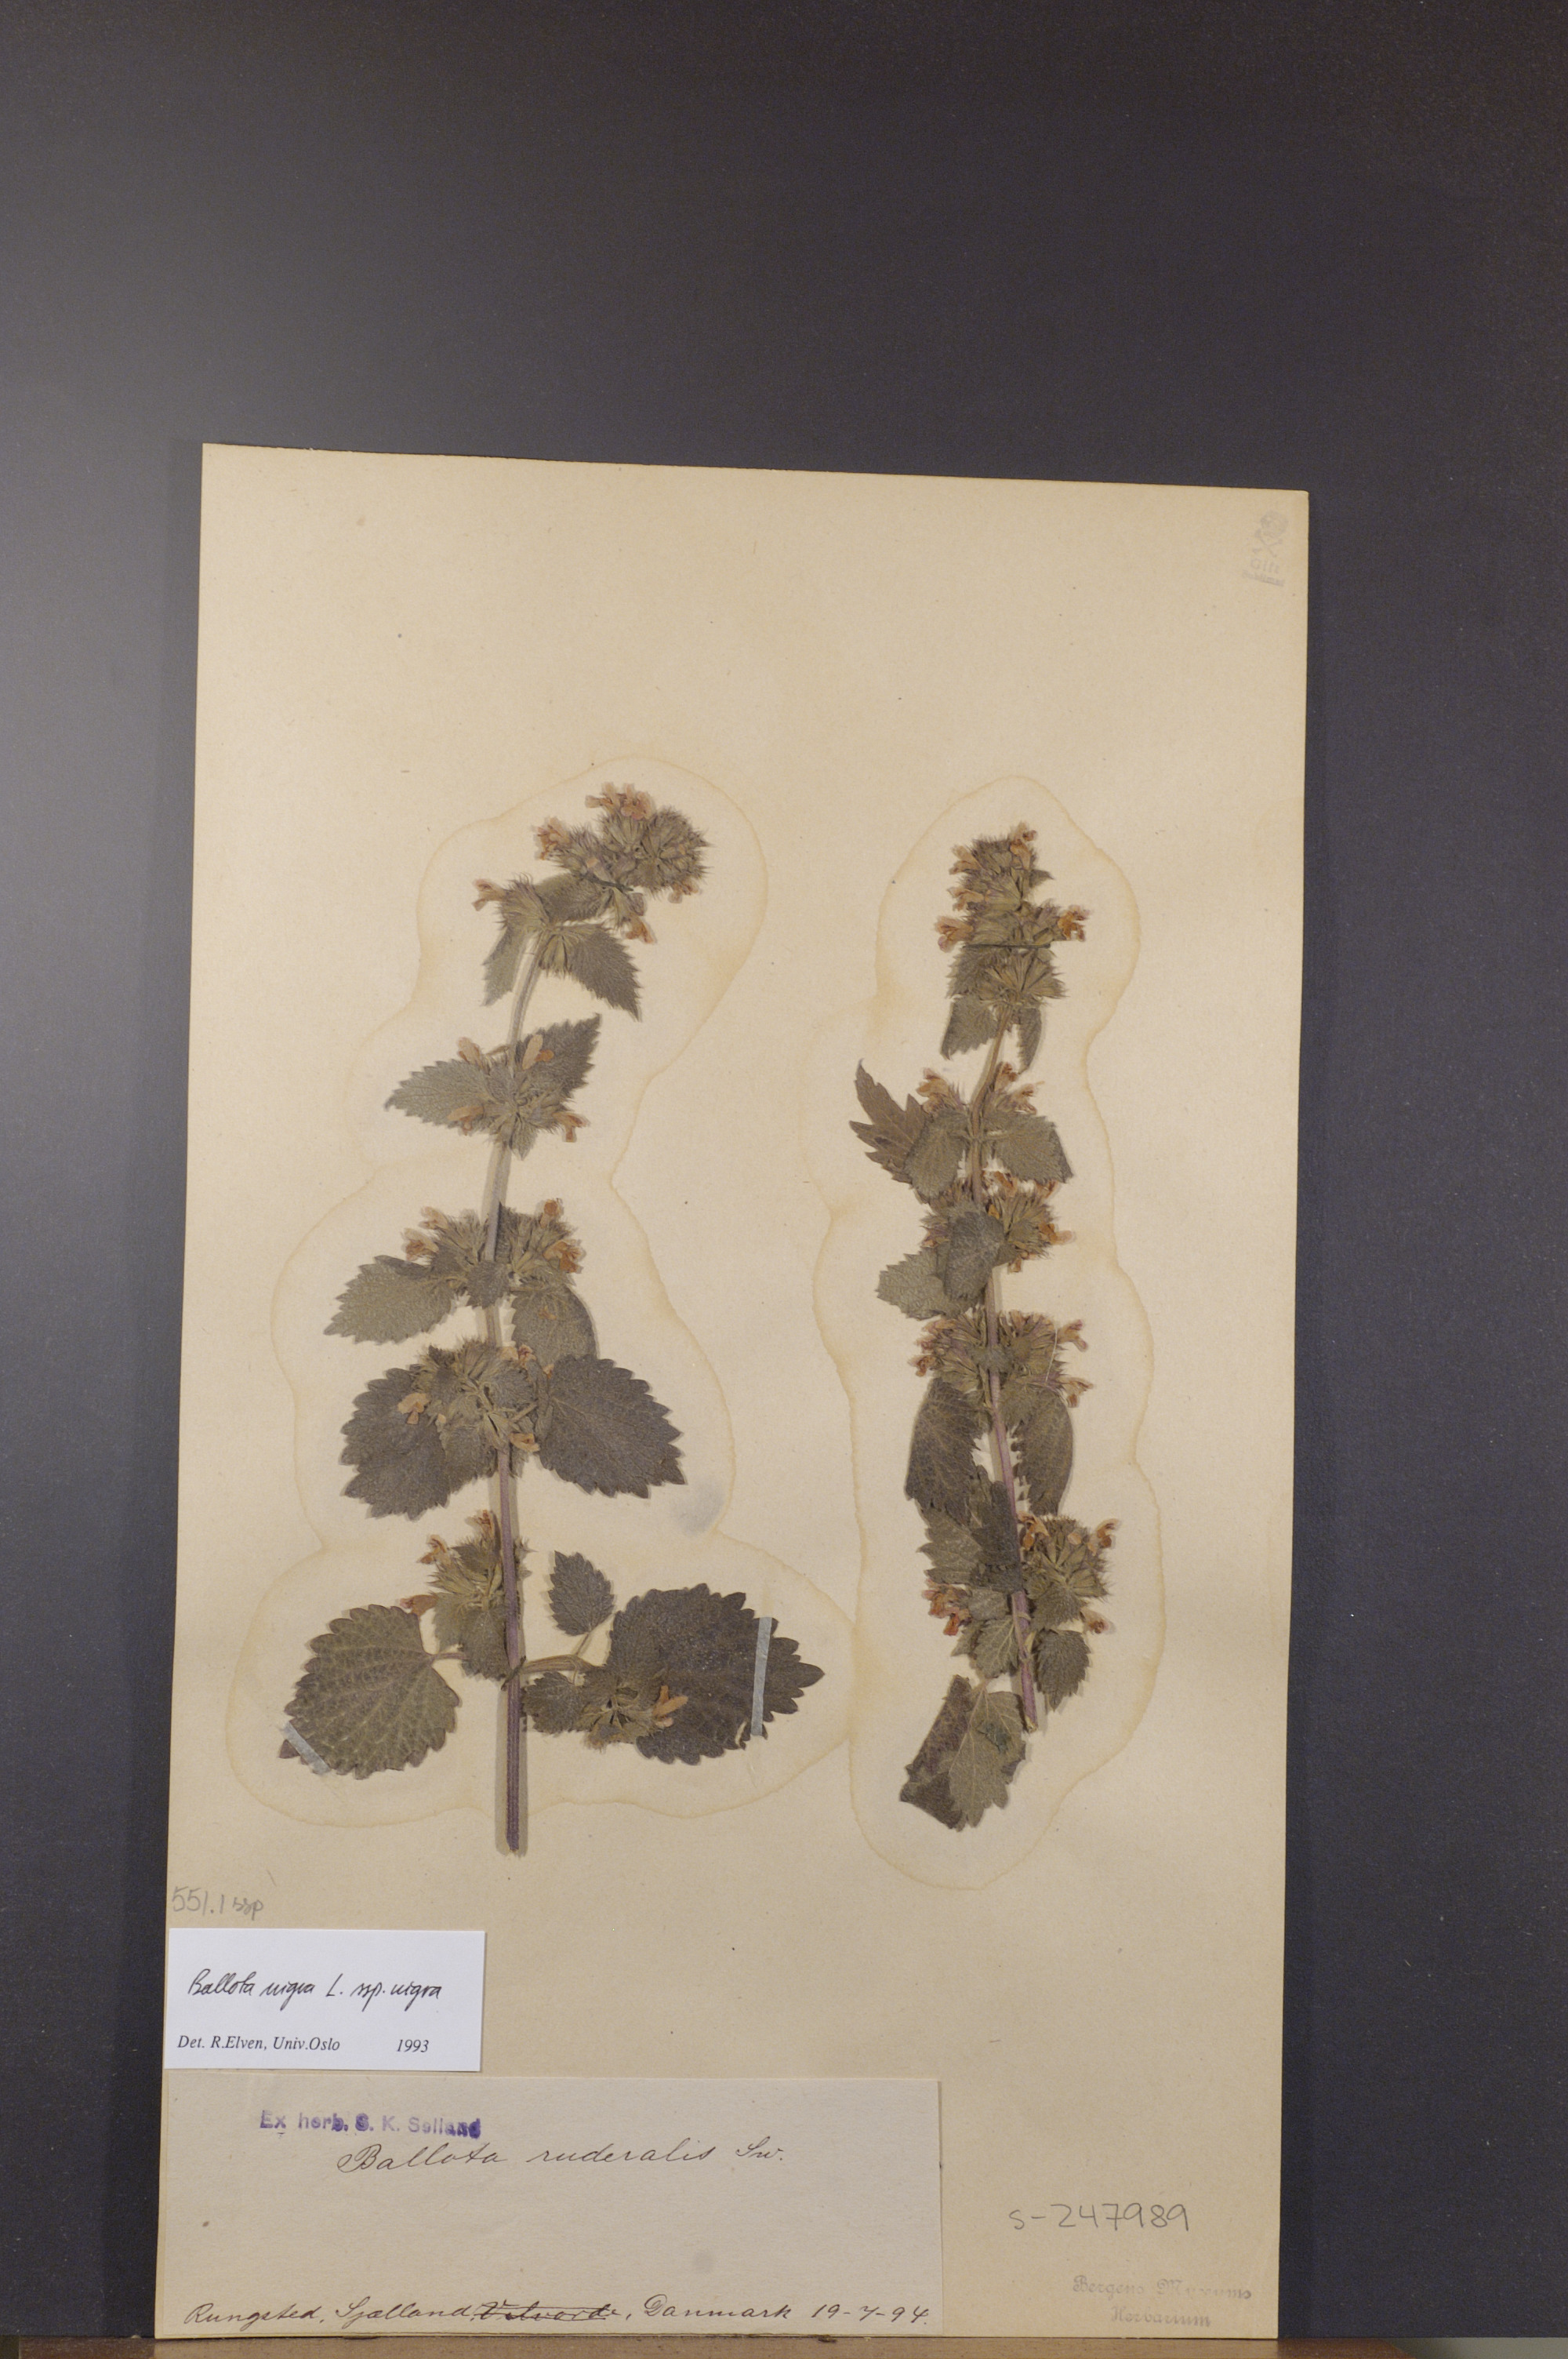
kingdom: Plantae
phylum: Tracheophyta
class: Magnoliopsida
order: Lamiales
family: Lamiaceae
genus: Ballota
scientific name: Ballota nigra
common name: Black horehound
